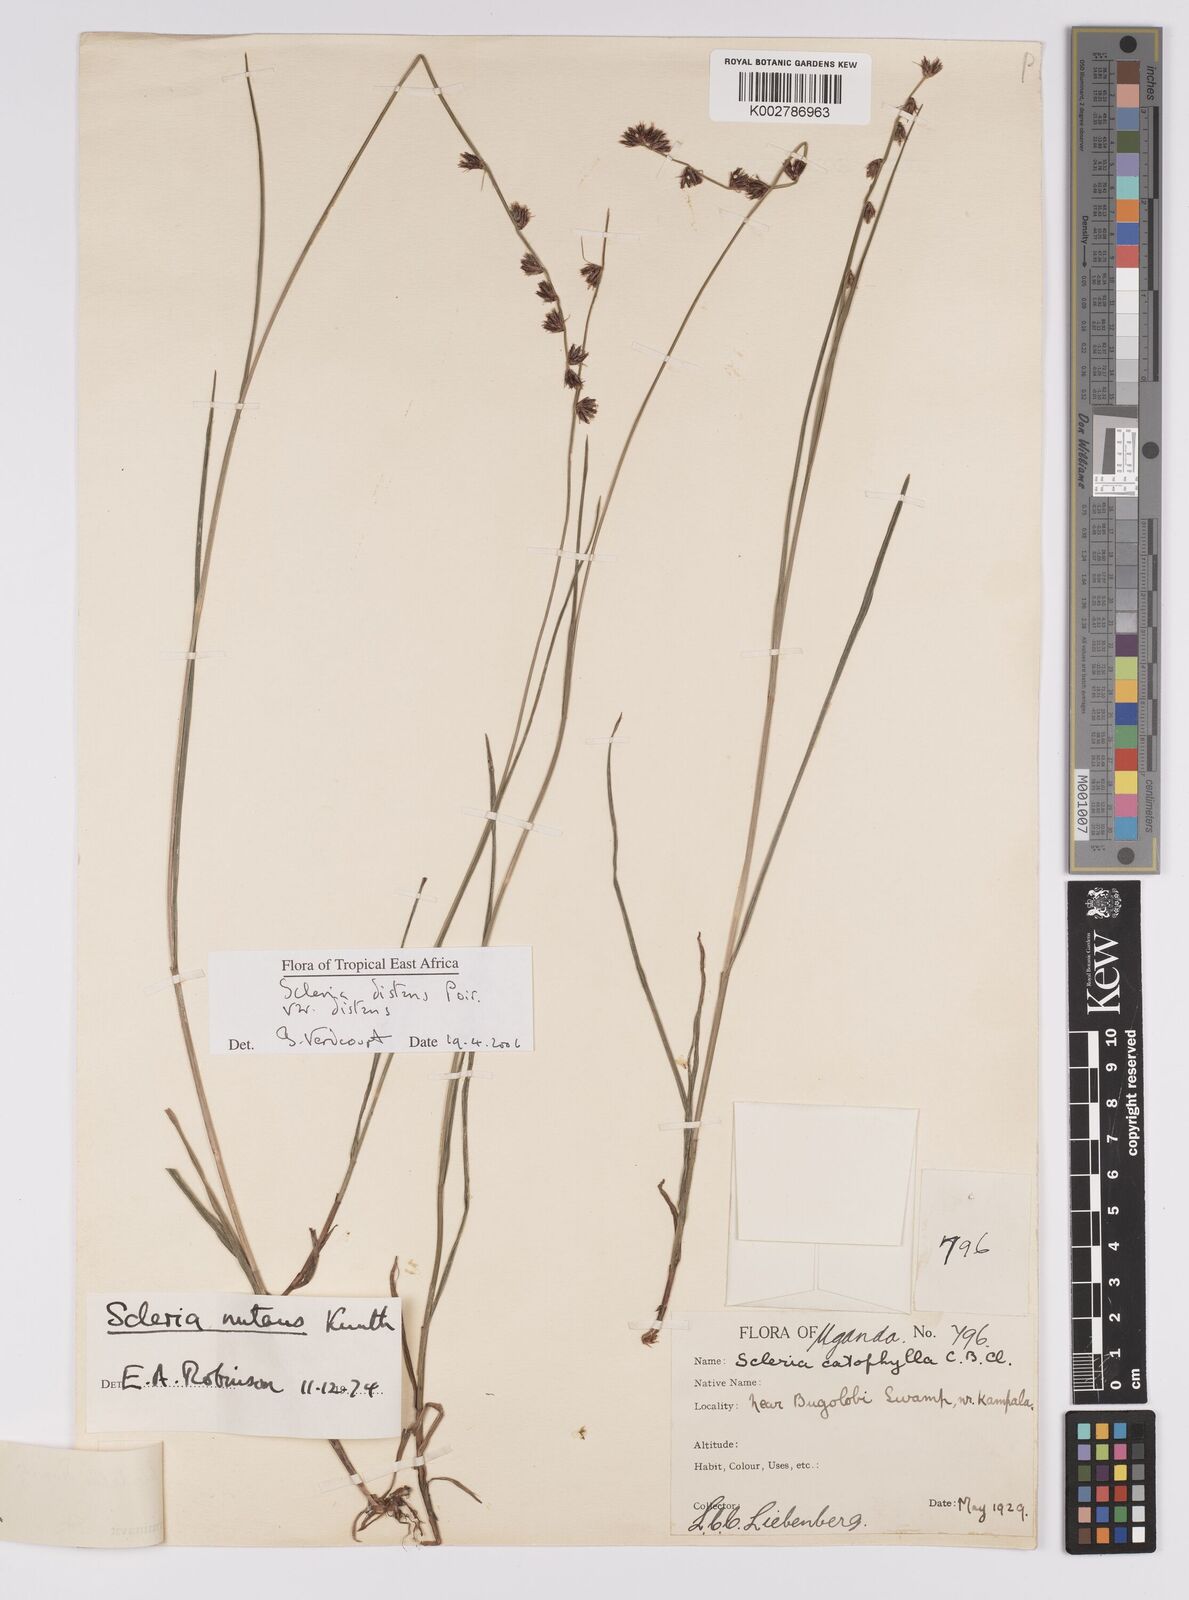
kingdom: Plantae
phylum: Tracheophyta
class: Liliopsida
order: Poales
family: Cyperaceae
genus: Scleria
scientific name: Scleria
